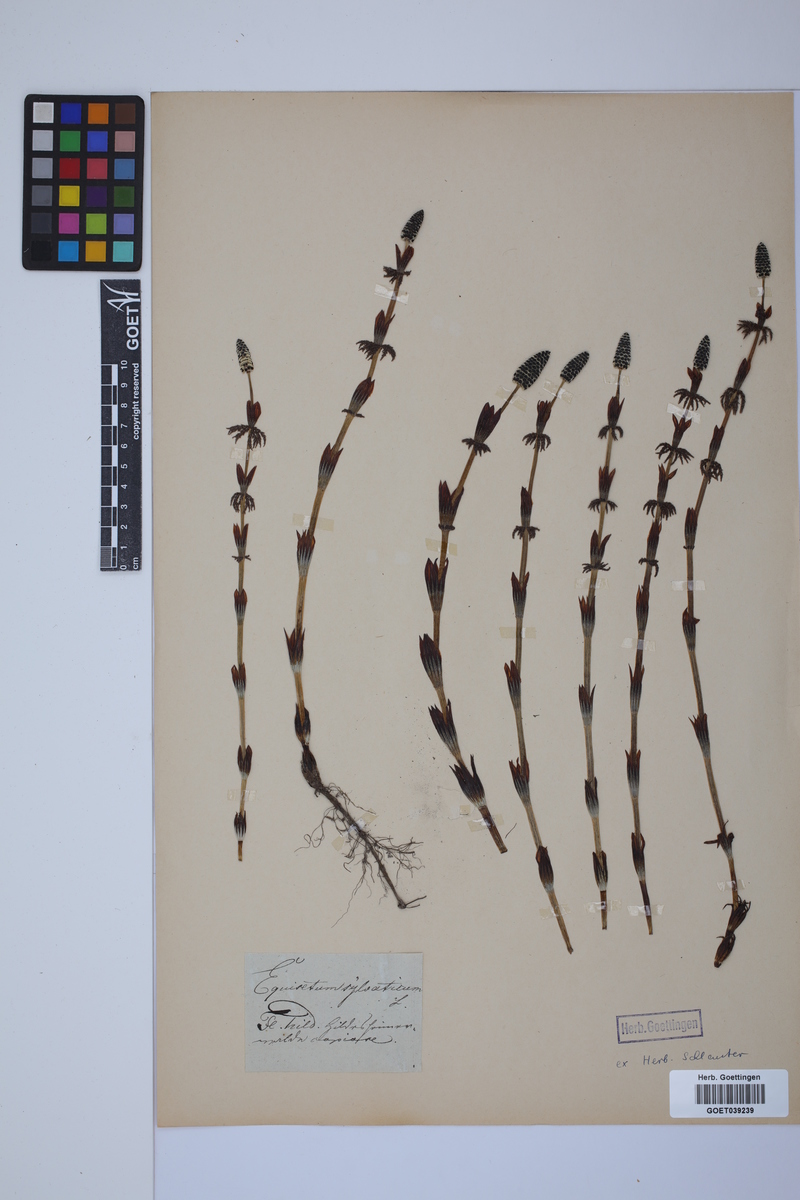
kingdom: Plantae
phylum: Tracheophyta
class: Polypodiopsida
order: Equisetales
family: Equisetaceae
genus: Equisetum
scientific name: Equisetum sylvaticum
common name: Wood horsetail
